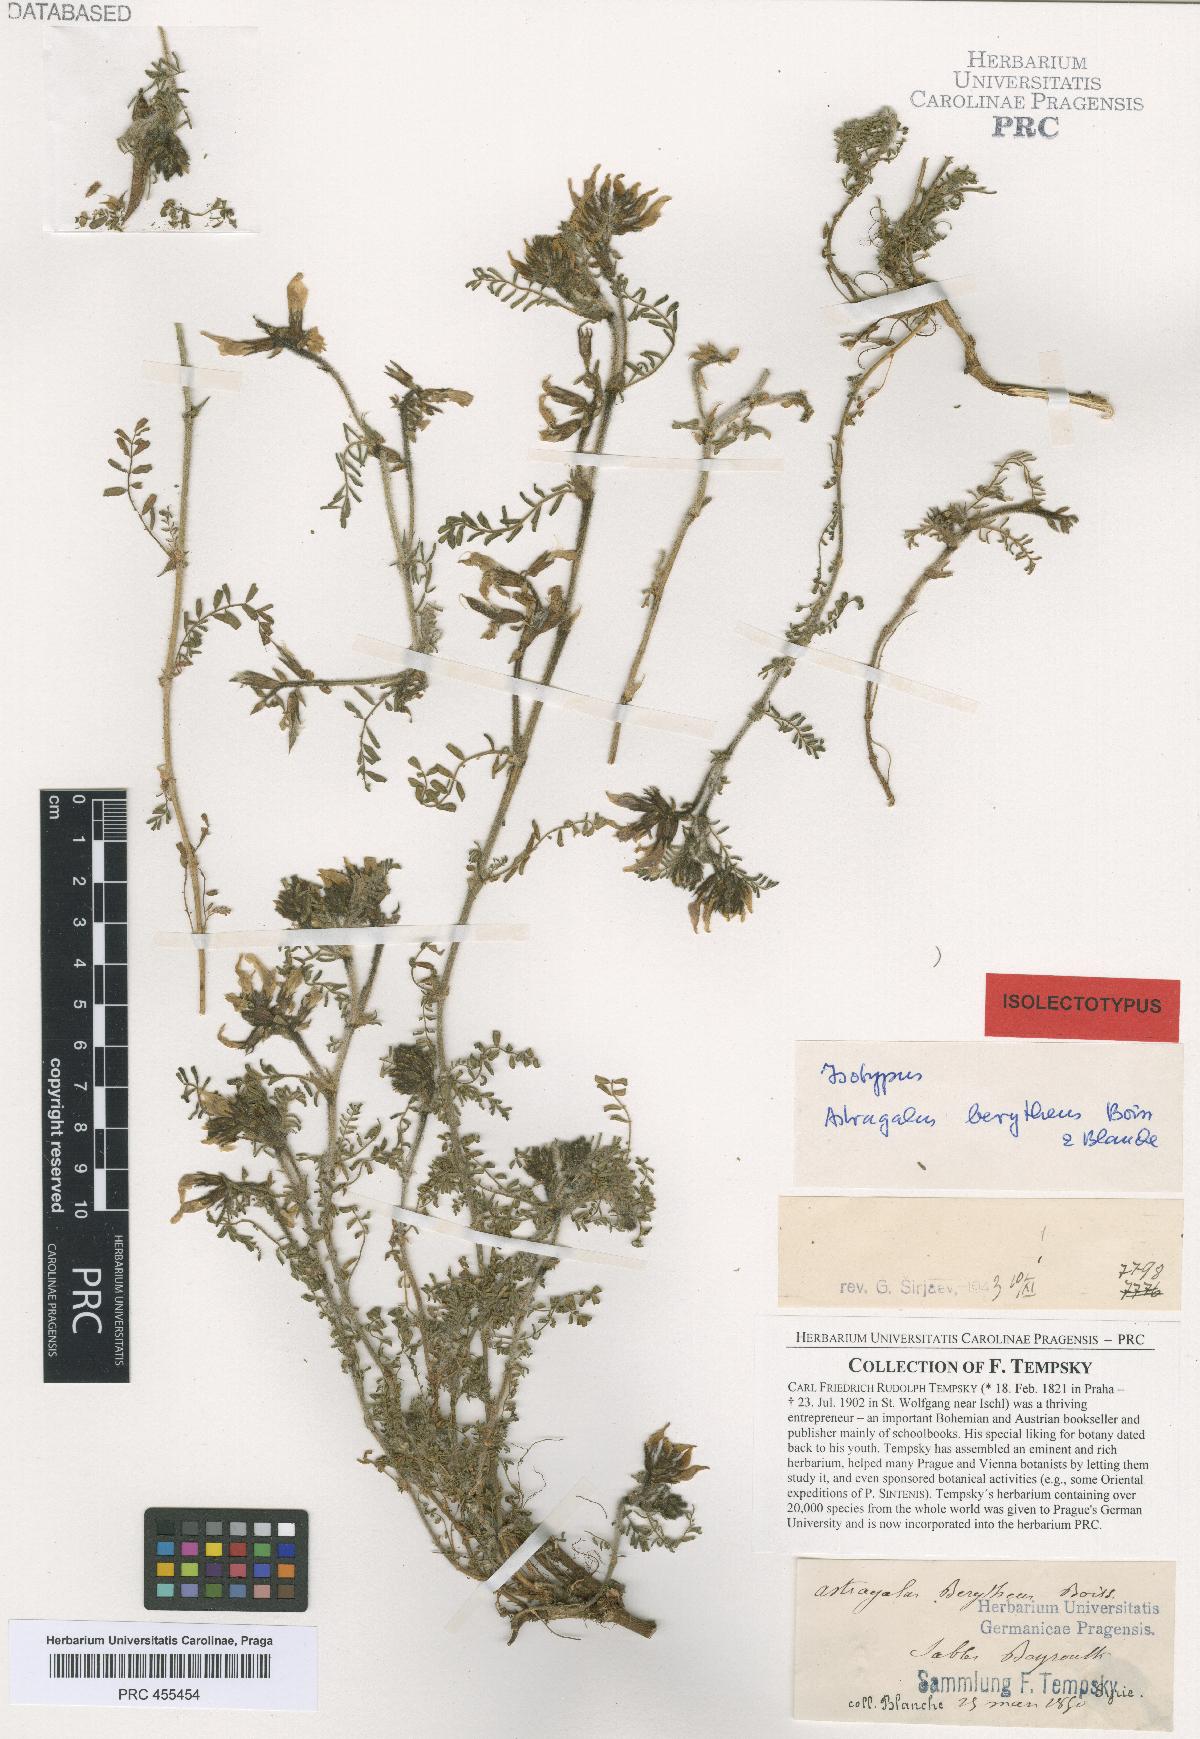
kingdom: Plantae
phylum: Tracheophyta
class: Magnoliopsida
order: Fabales
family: Fabaceae
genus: Astragalus
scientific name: Astragalus berytheus
